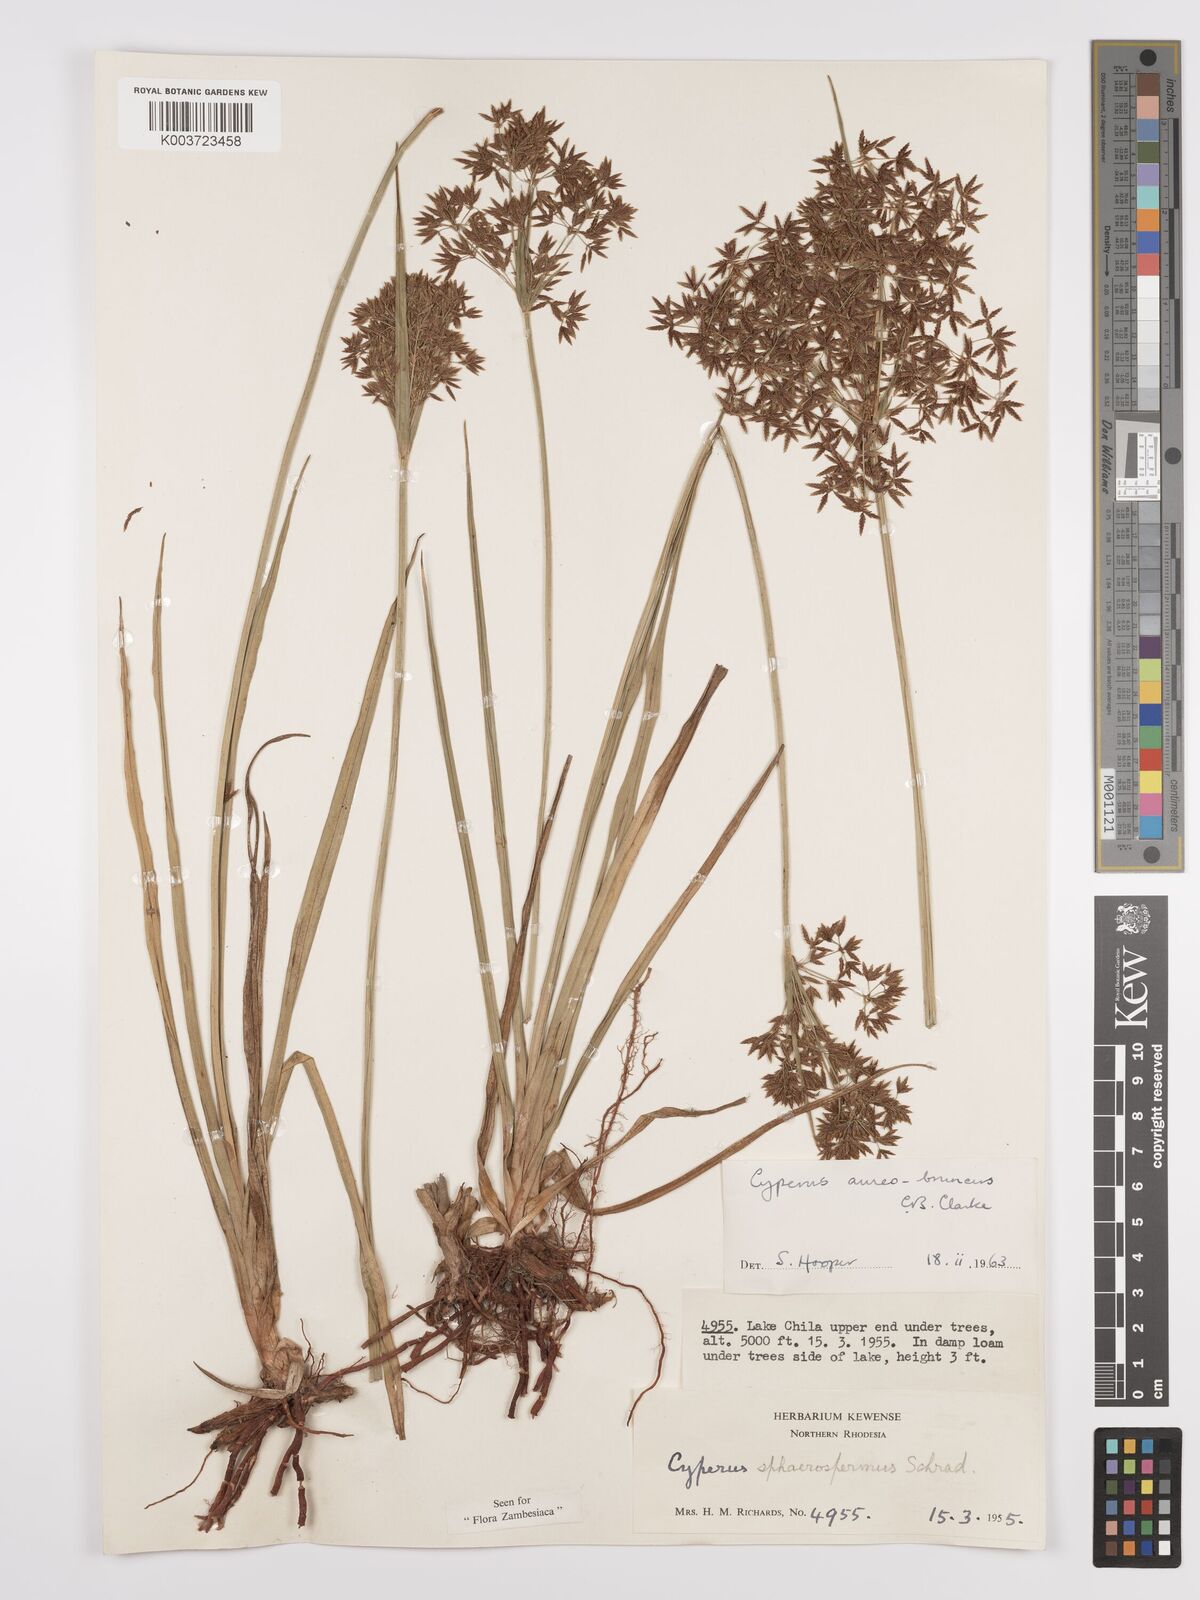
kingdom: Plantae
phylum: Tracheophyta
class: Liliopsida
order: Poales
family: Cyperaceae
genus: Cyperus
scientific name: Cyperus aureobrunneus
